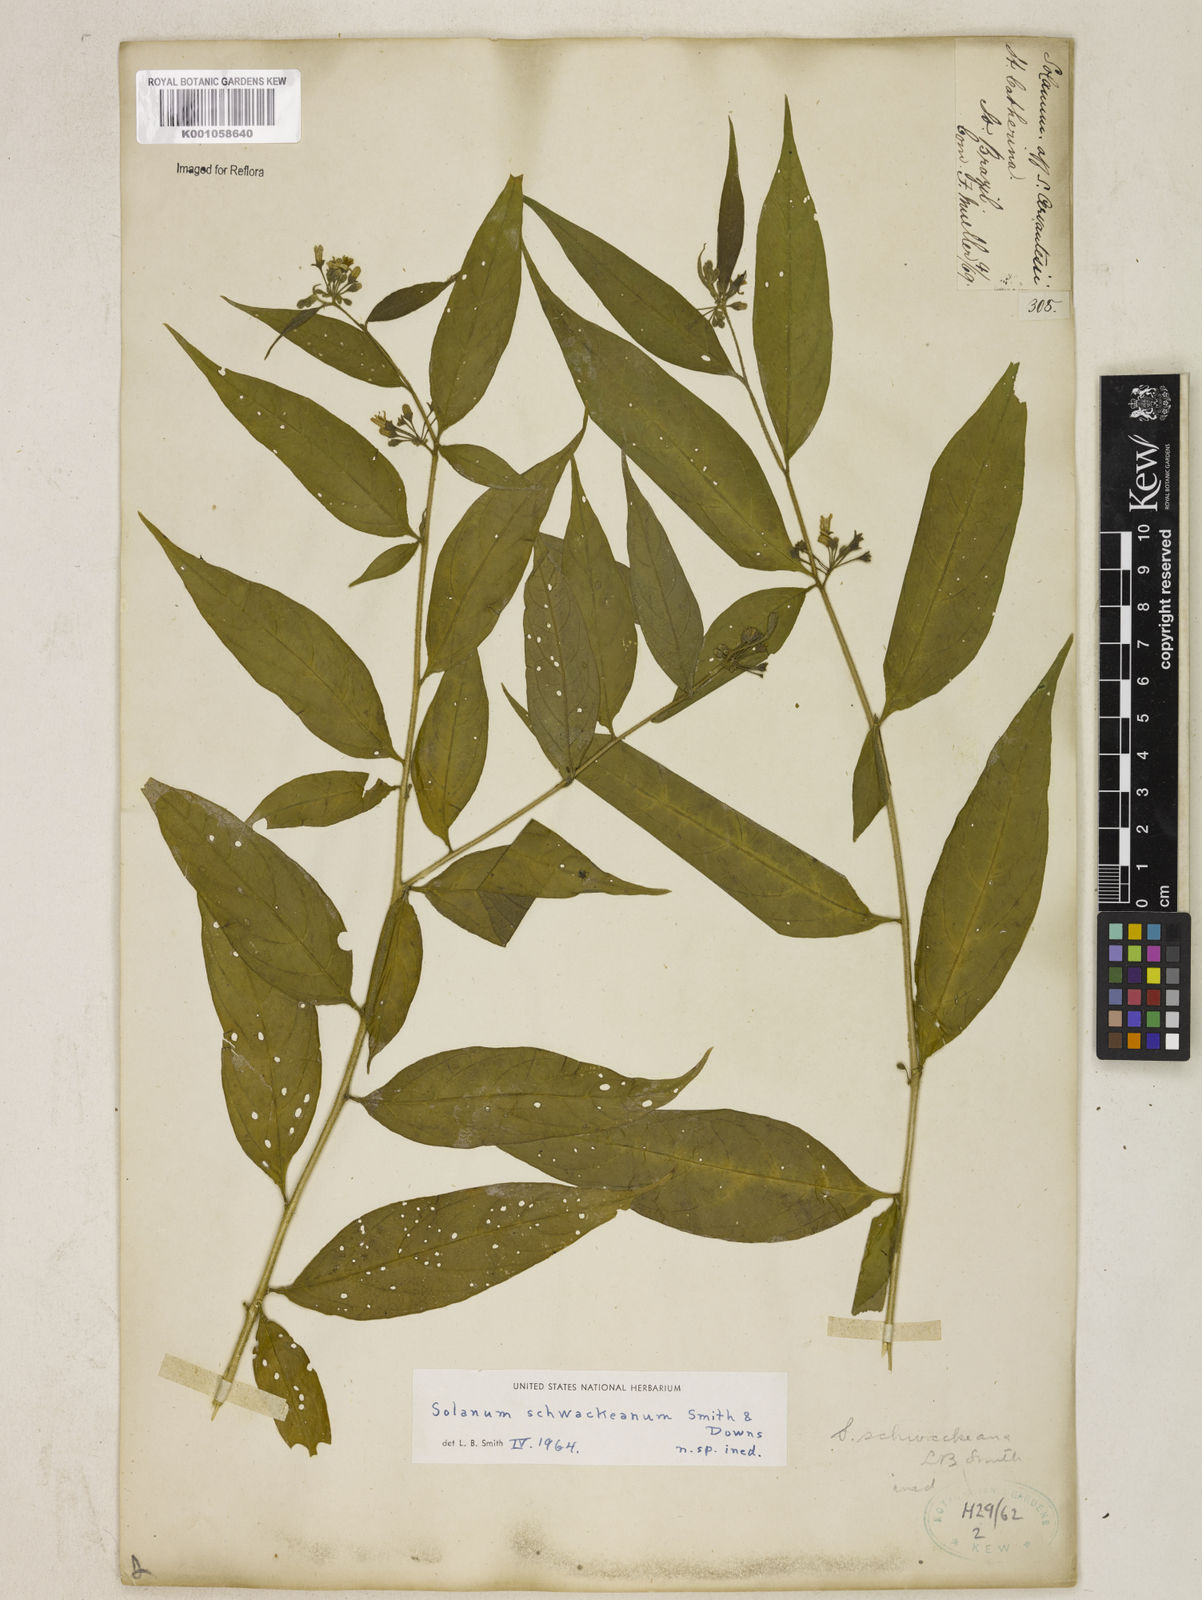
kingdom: Plantae
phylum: Tracheophyta
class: Magnoliopsida
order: Solanales
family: Solanaceae
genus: Solanum
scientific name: Solanum schwackeanum
